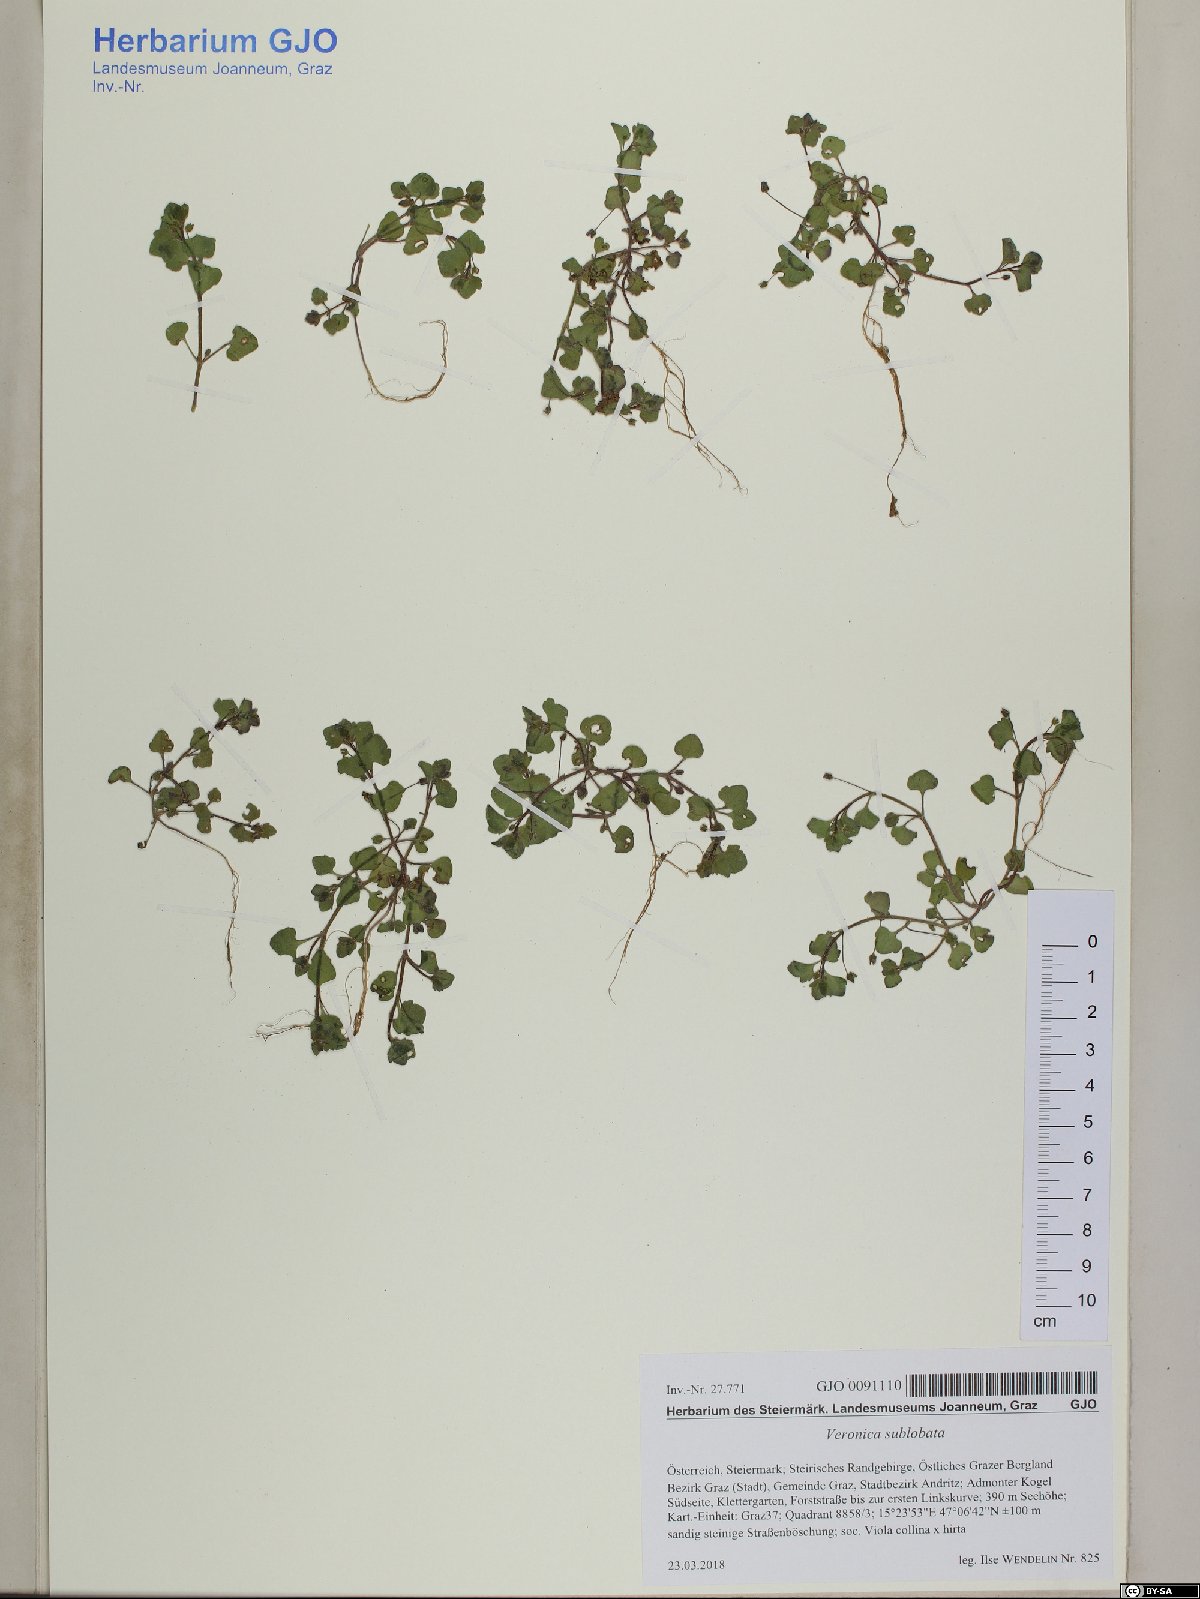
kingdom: Plantae
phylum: Tracheophyta
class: Magnoliopsida
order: Lamiales
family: Plantaginaceae
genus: Veronica
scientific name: Veronica sublobata
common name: False ivy-leaved speedwell
